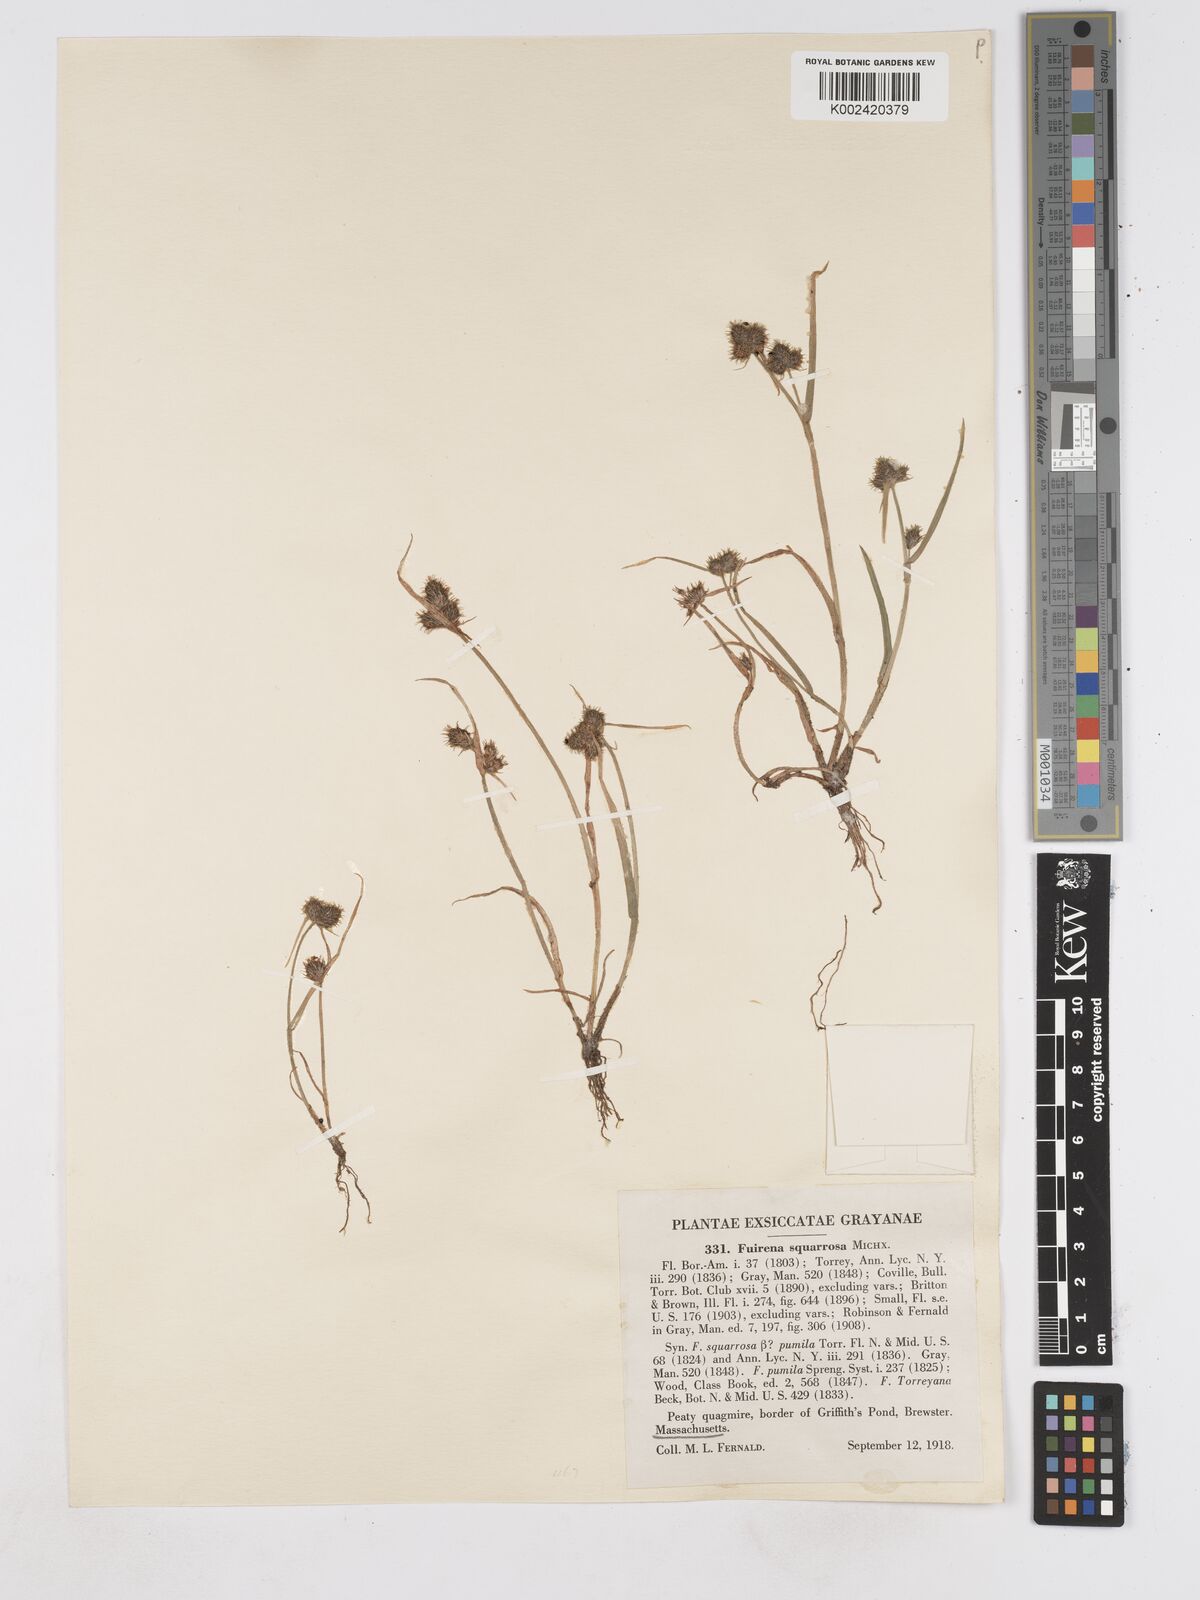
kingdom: Plantae
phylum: Tracheophyta
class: Liliopsida
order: Poales
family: Cyperaceae
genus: Fuirena
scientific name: Fuirena squarrosa
